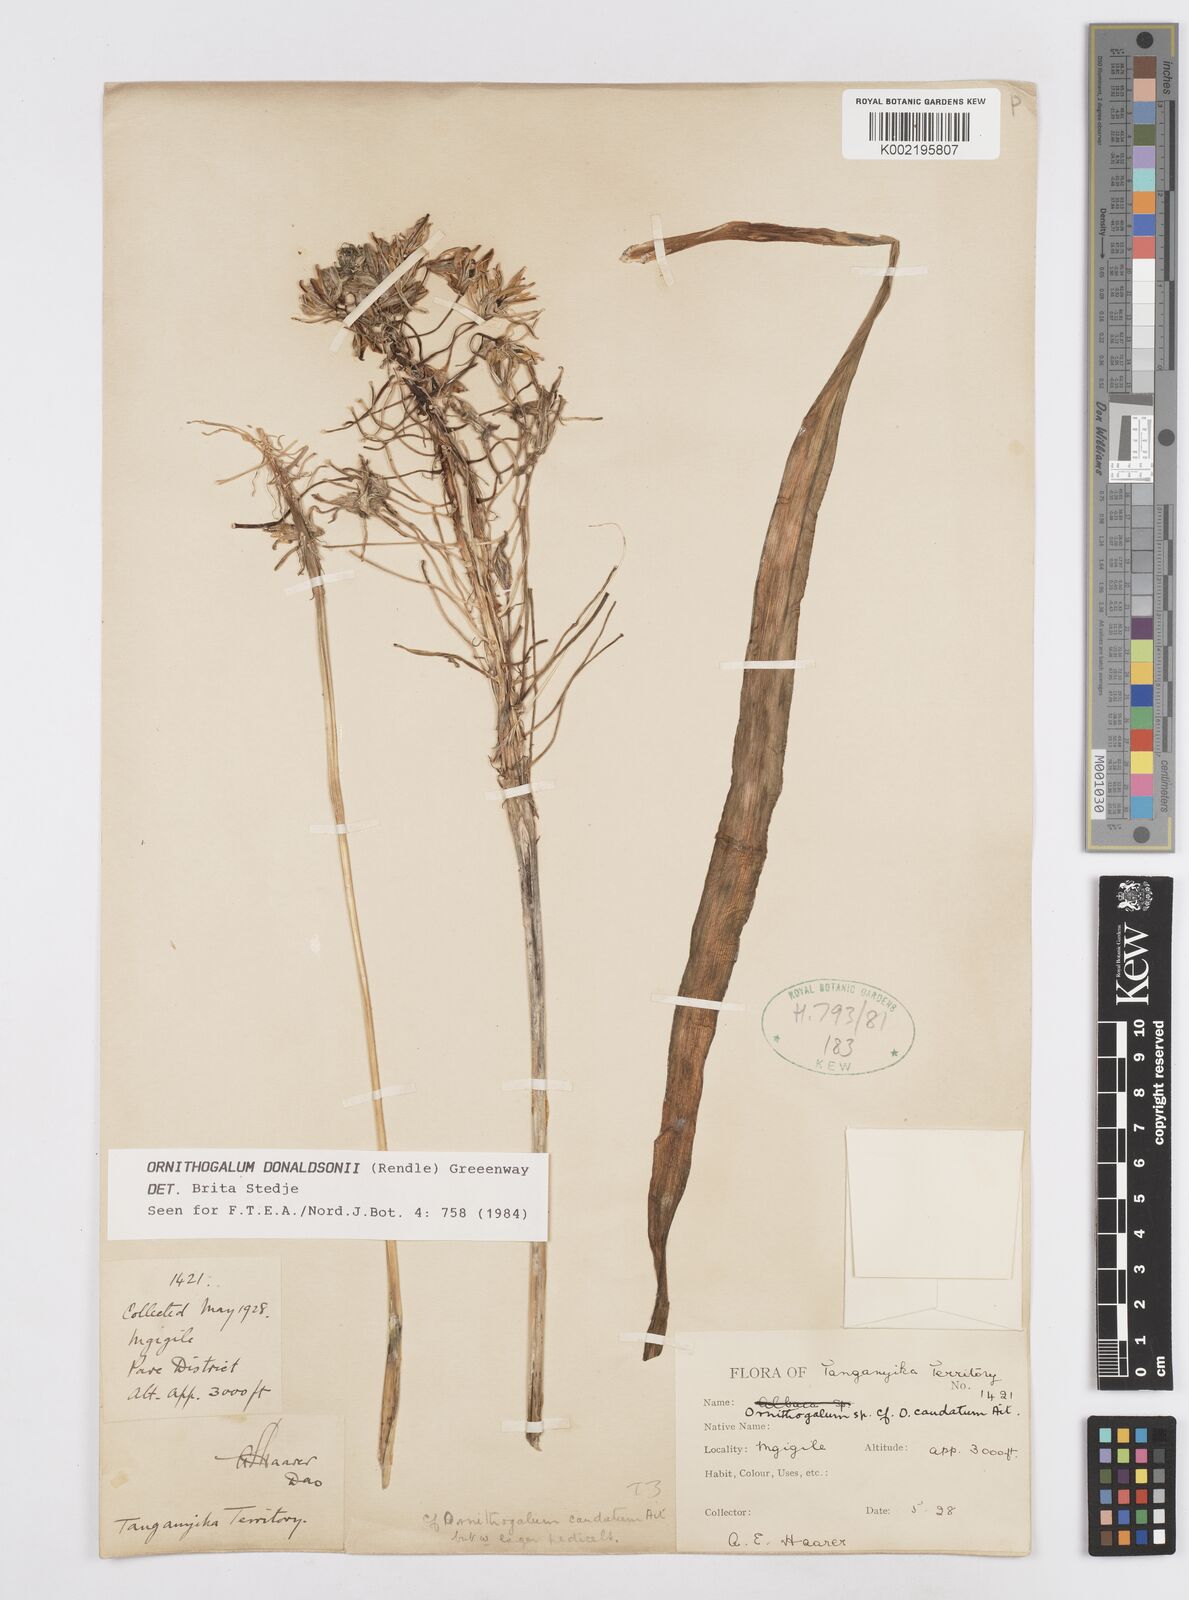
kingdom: Plantae
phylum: Tracheophyta
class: Liliopsida
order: Asparagales
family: Asparagaceae
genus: Albuca
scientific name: Albuca donaldsonii
